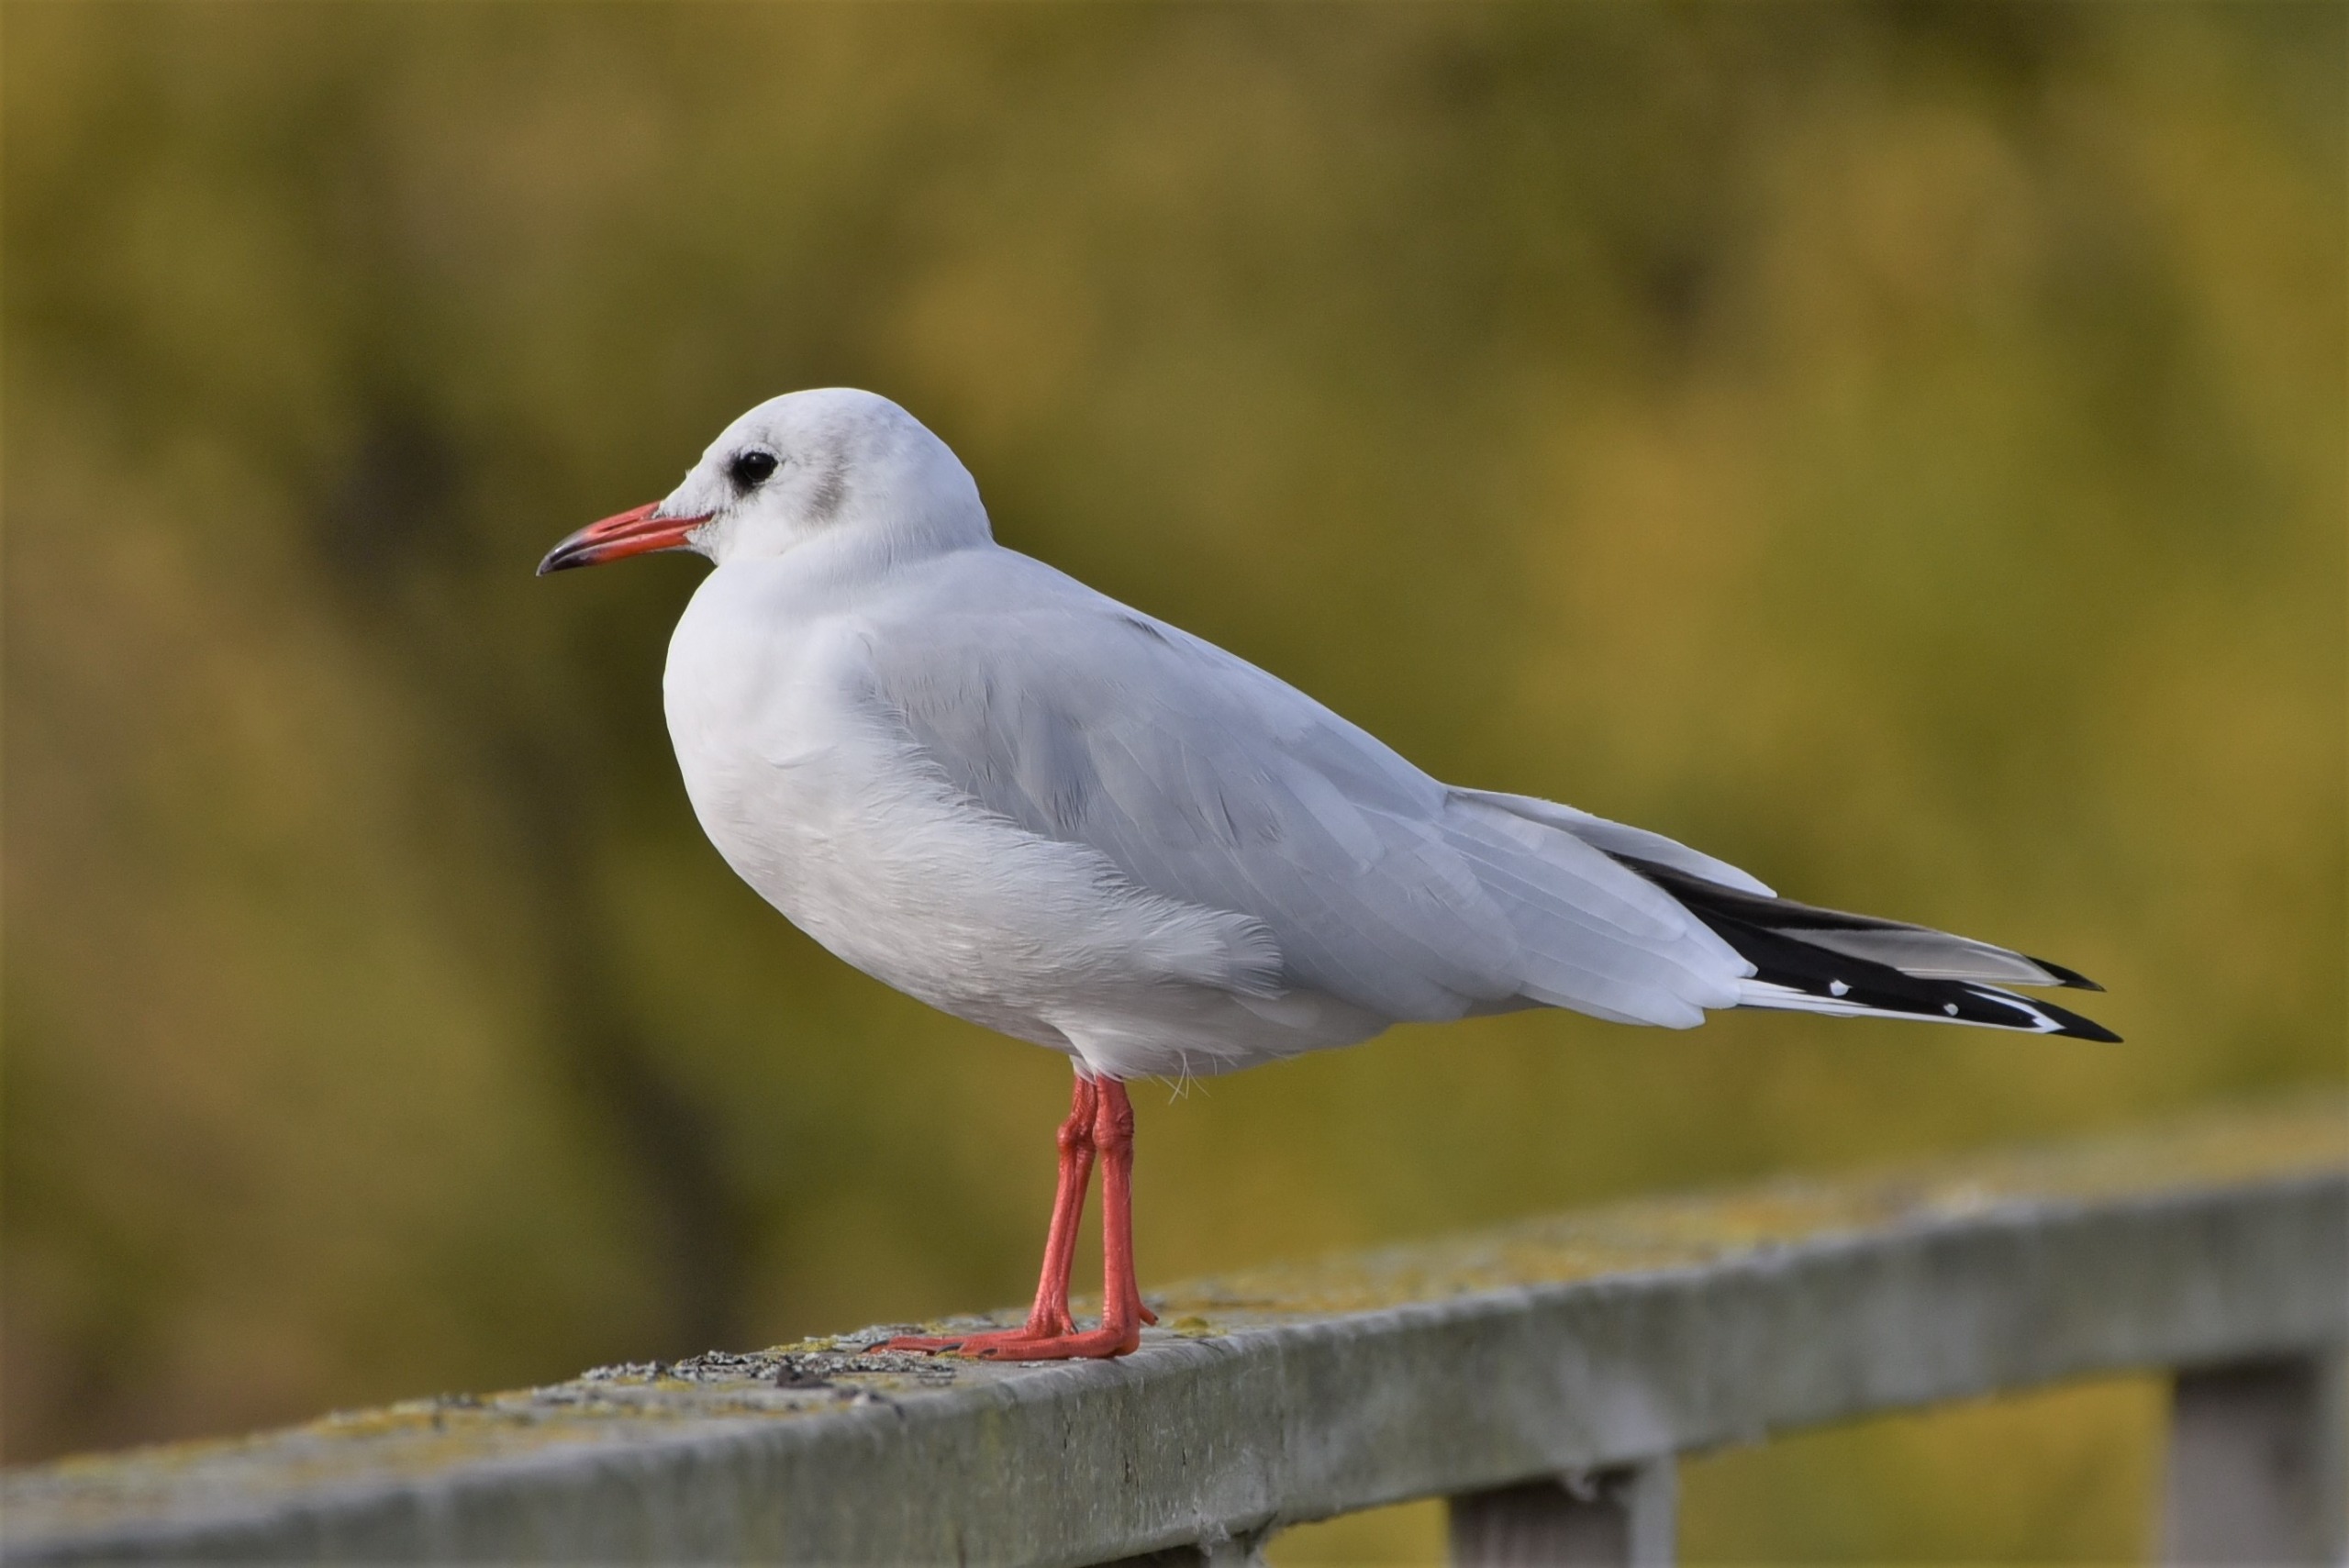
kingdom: Animalia
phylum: Chordata
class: Aves
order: Charadriiformes
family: Laridae
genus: Chroicocephalus
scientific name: Chroicocephalus ridibundus
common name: Hættemåge
